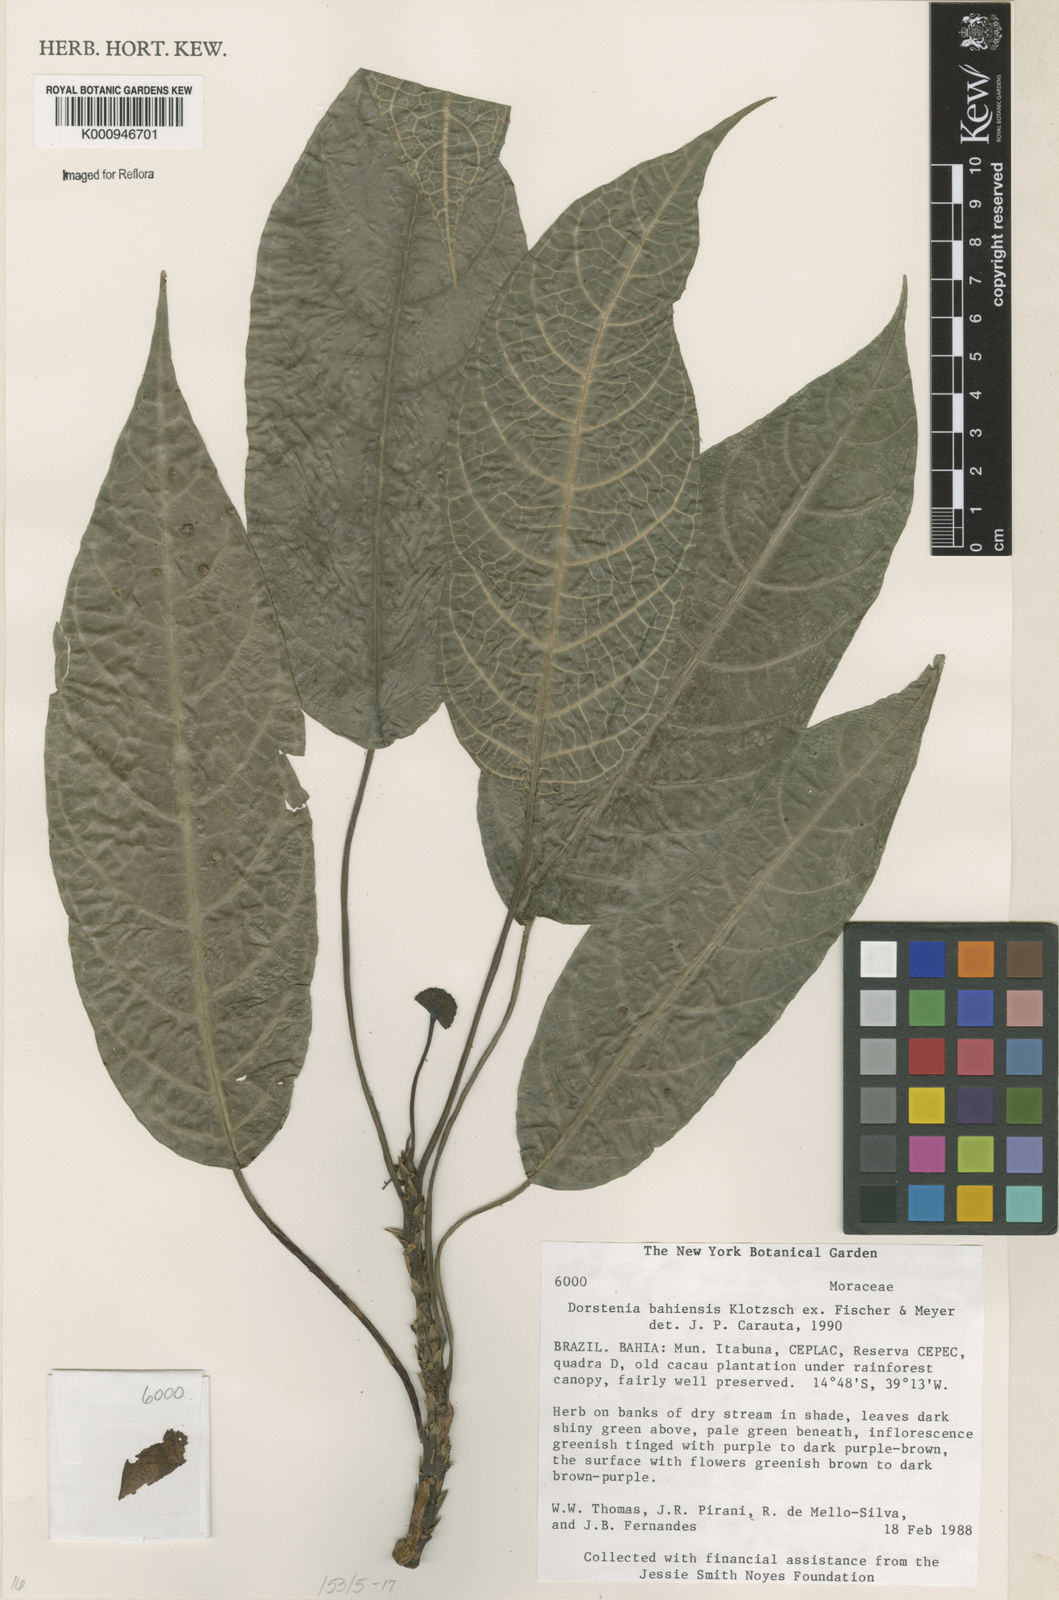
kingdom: Plantae
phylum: Tracheophyta
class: Magnoliopsida
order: Rosales
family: Moraceae
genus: Dorstenia
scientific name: Dorstenia bahiensis
